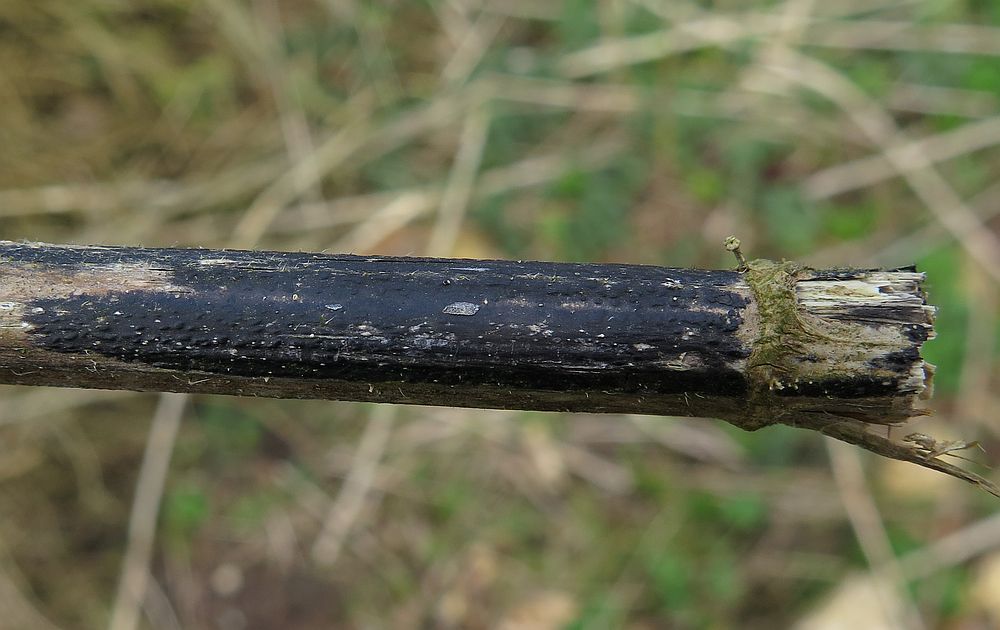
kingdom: Fungi
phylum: Ascomycota
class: Sordariomycetes
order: Diaporthales
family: Diaporthaceae
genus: Diaporthopsis
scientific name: Diaporthopsis urticae
